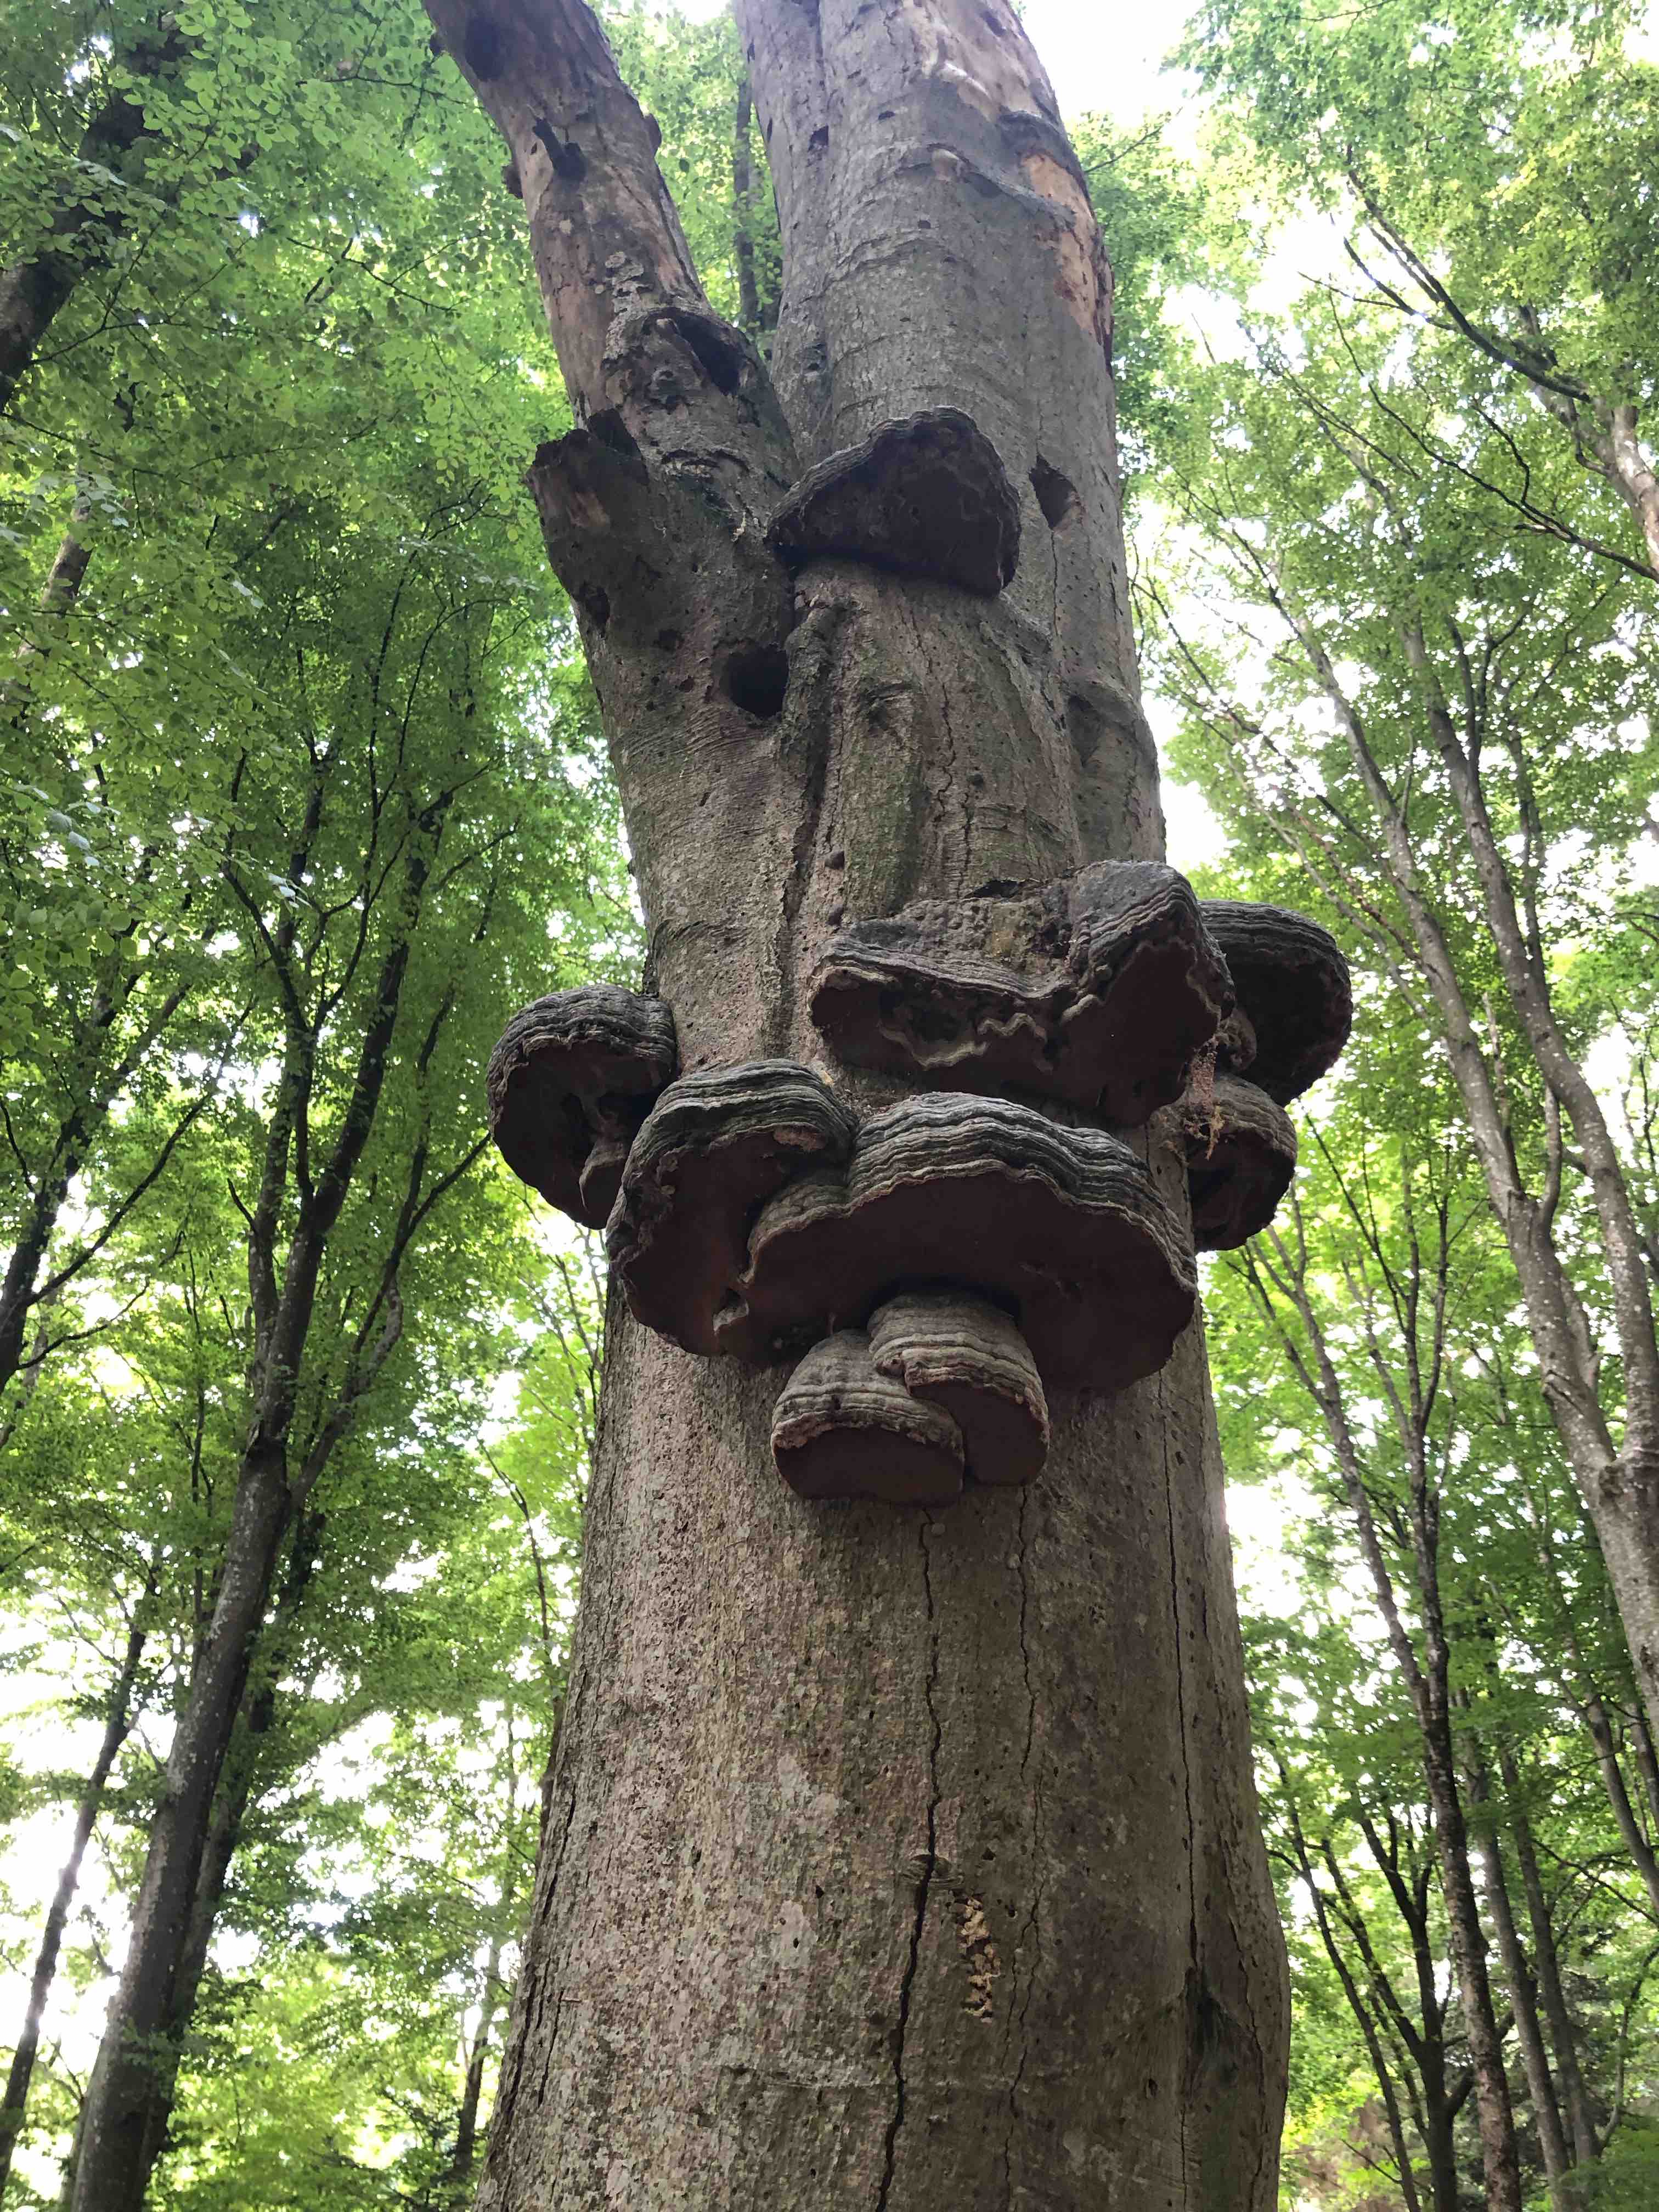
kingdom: Fungi
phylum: Basidiomycota
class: Agaricomycetes
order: Polyporales
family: Polyporaceae
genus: Fomes
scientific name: Fomes fomentarius
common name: tøndersvamp
